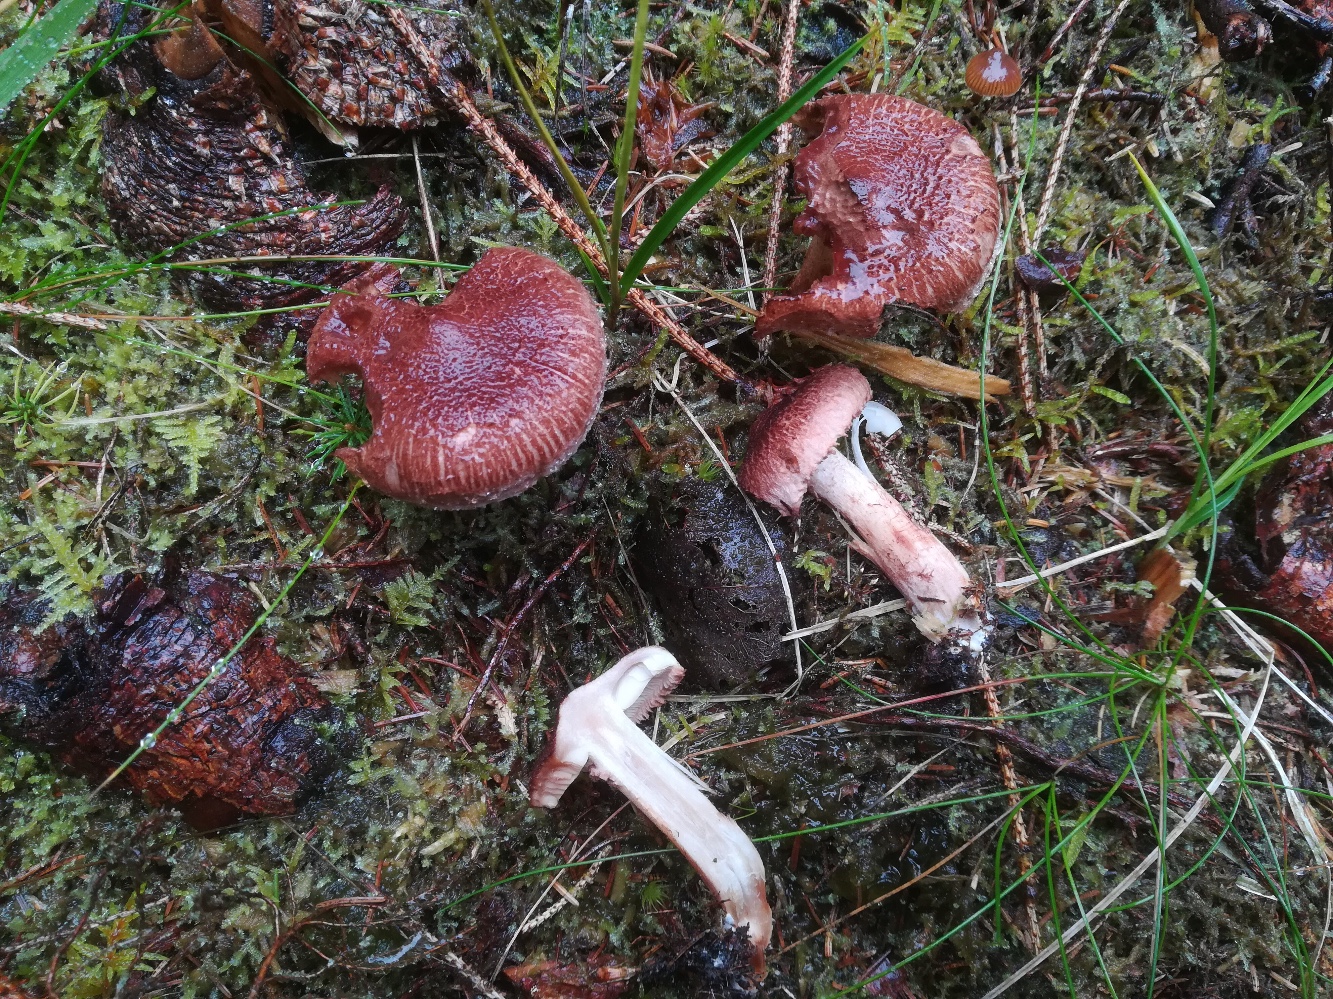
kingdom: Fungi
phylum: Basidiomycota
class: Agaricomycetes
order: Agaricales
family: Tricholomataceae
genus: Tricholoma
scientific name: Tricholoma vaccinum
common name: ko-ridderhat
